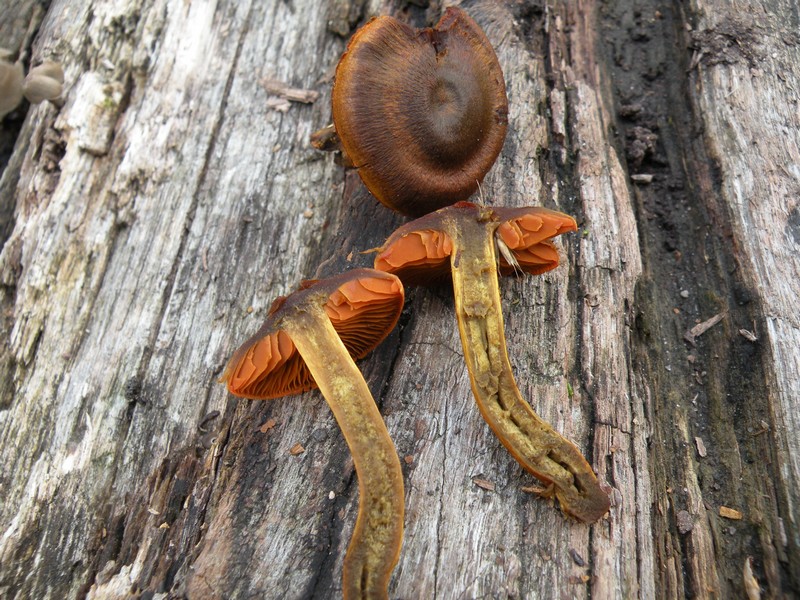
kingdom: Fungi
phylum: Basidiomycota
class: Agaricomycetes
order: Agaricales
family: Cortinariaceae
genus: Cortinarius
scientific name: Cortinarius malicorius
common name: grønkødet slørhat
